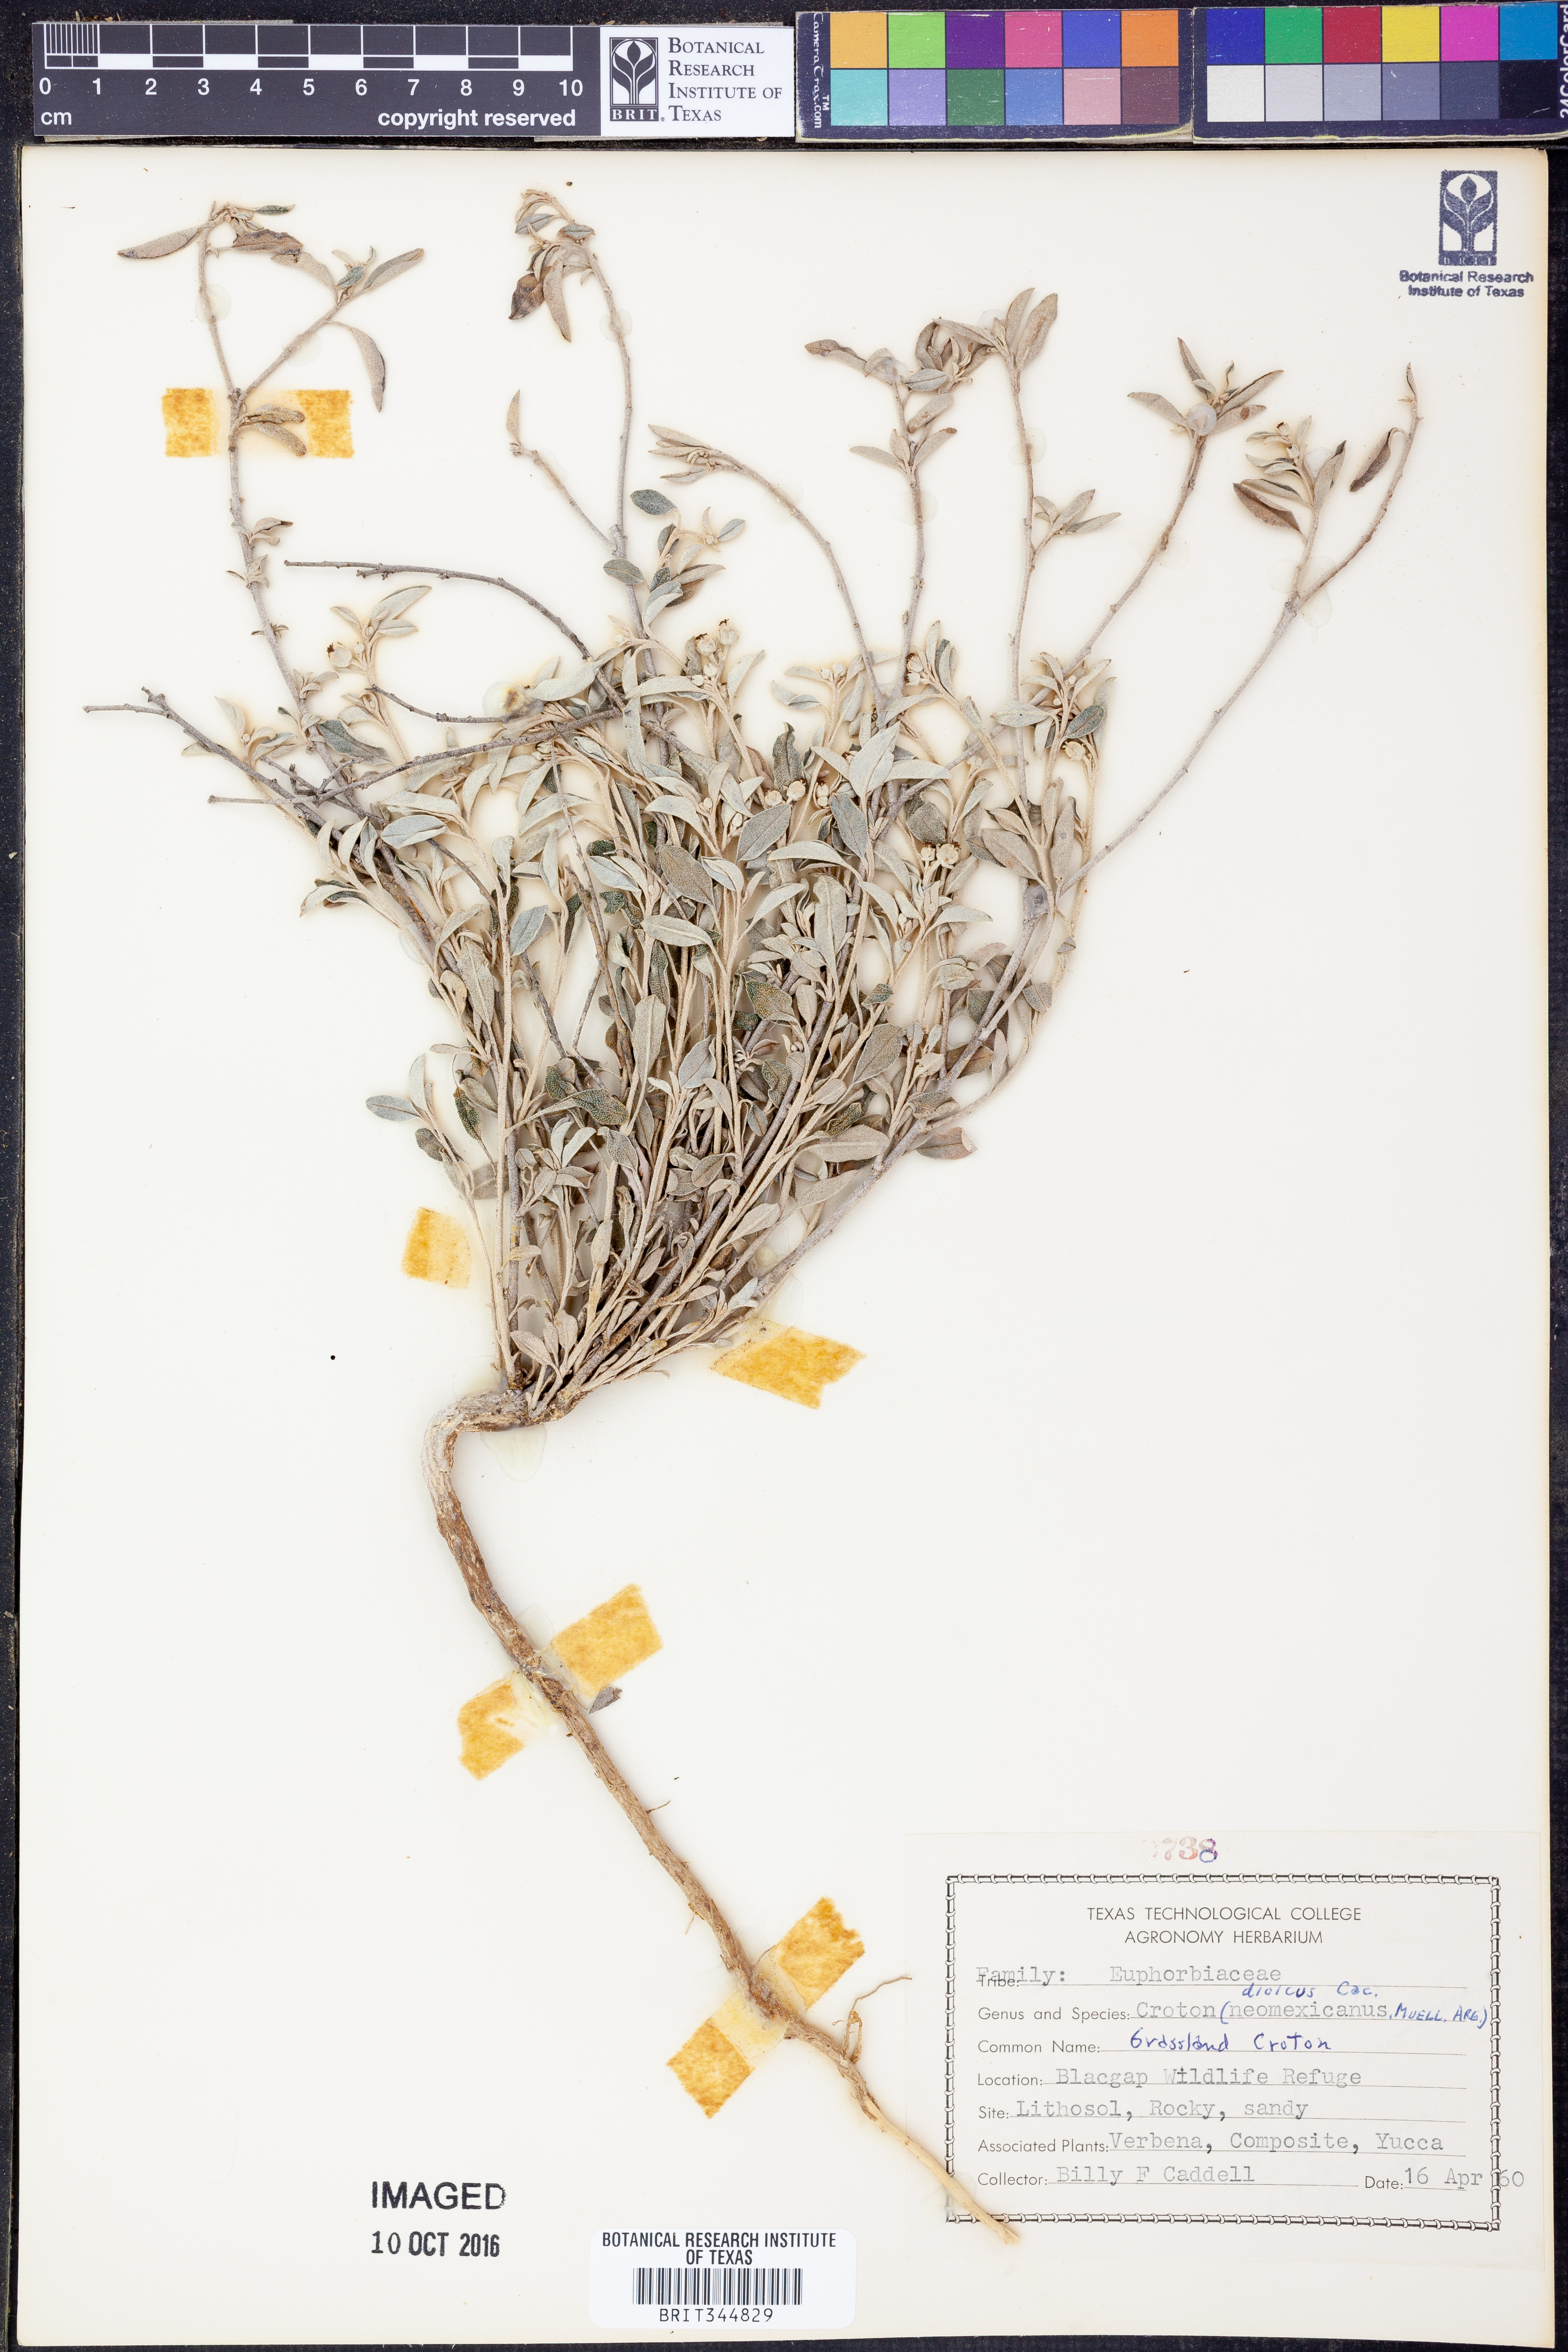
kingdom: Plantae
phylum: Tracheophyta
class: Magnoliopsida
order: Malpighiales
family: Euphorbiaceae
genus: Croton
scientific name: Croton dioicus
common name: Grassland croton
